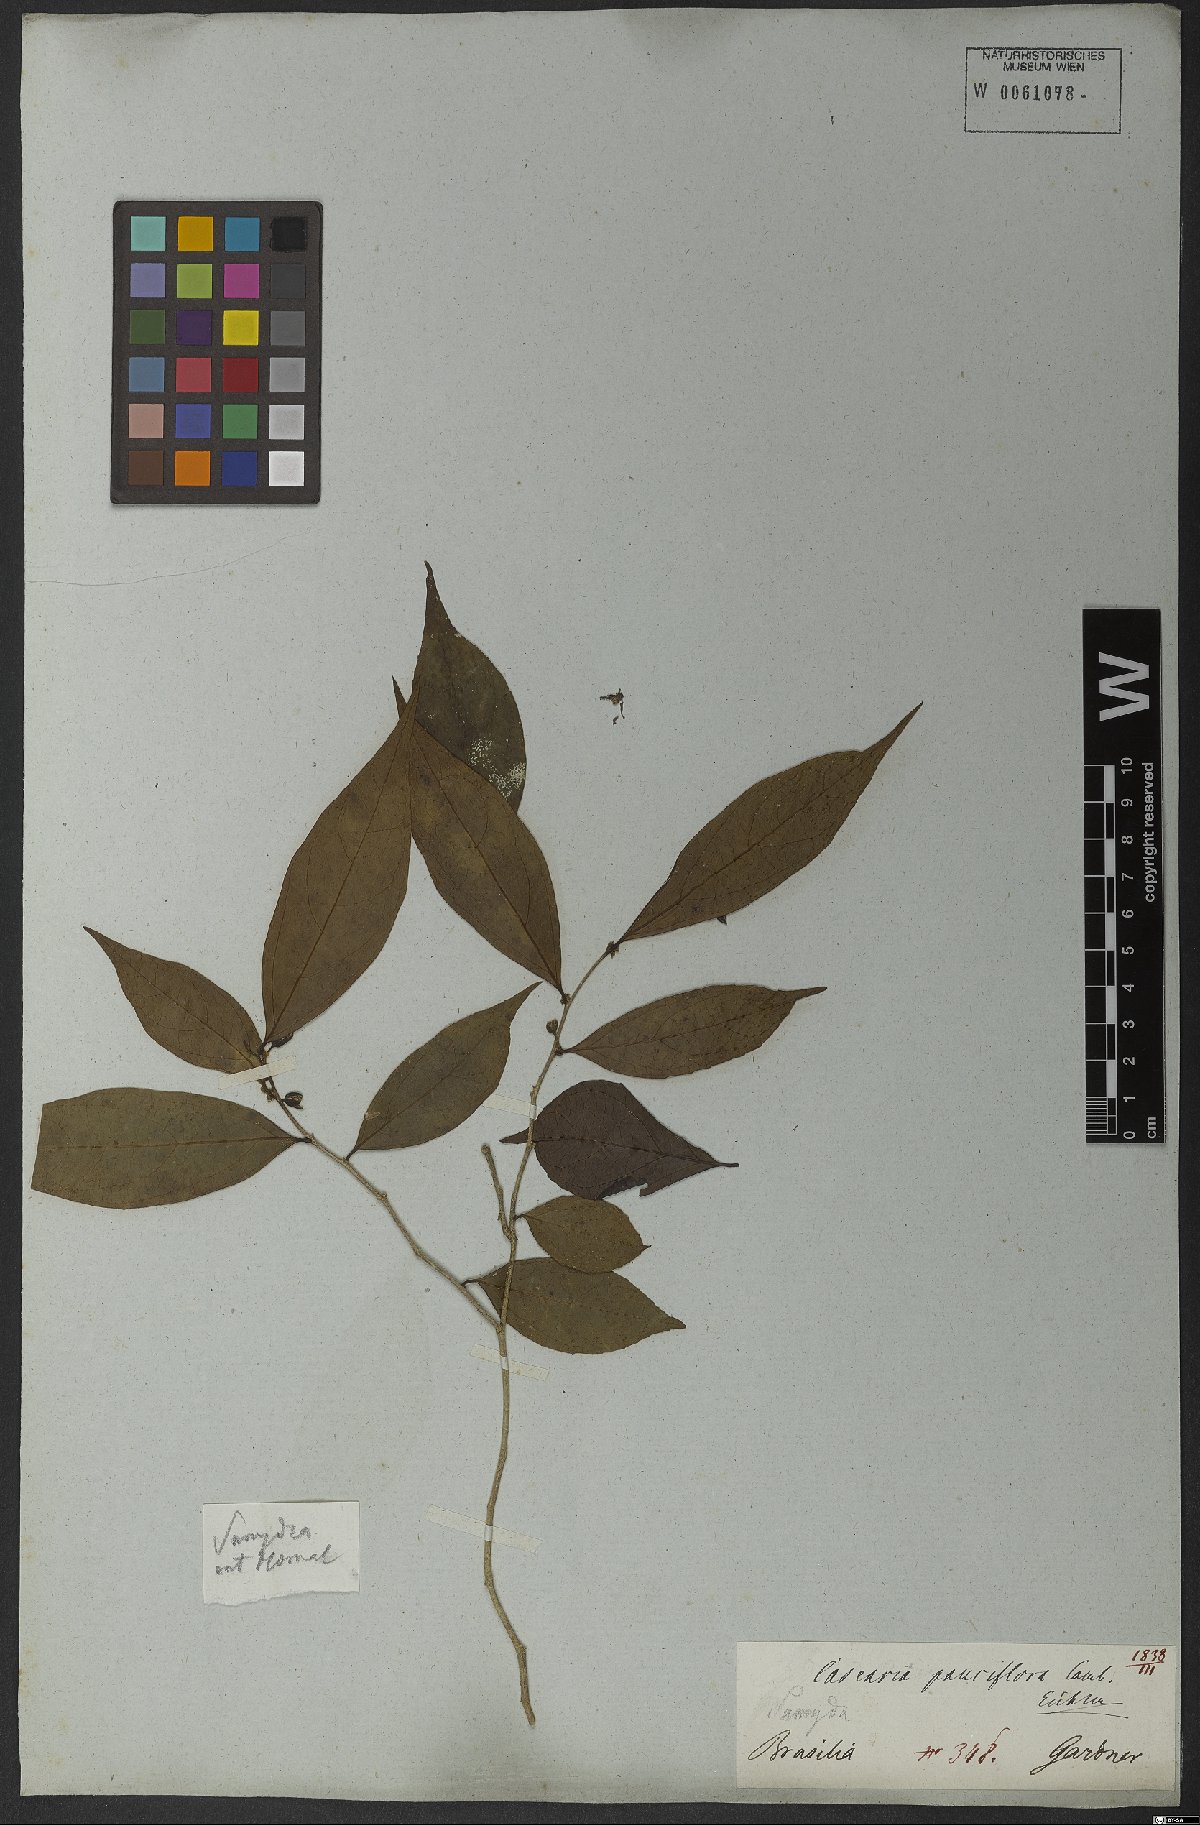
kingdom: Plantae
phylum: Tracheophyta
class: Magnoliopsida
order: Malpighiales
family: Salicaceae
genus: Casearia
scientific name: Casearia pauciflora
